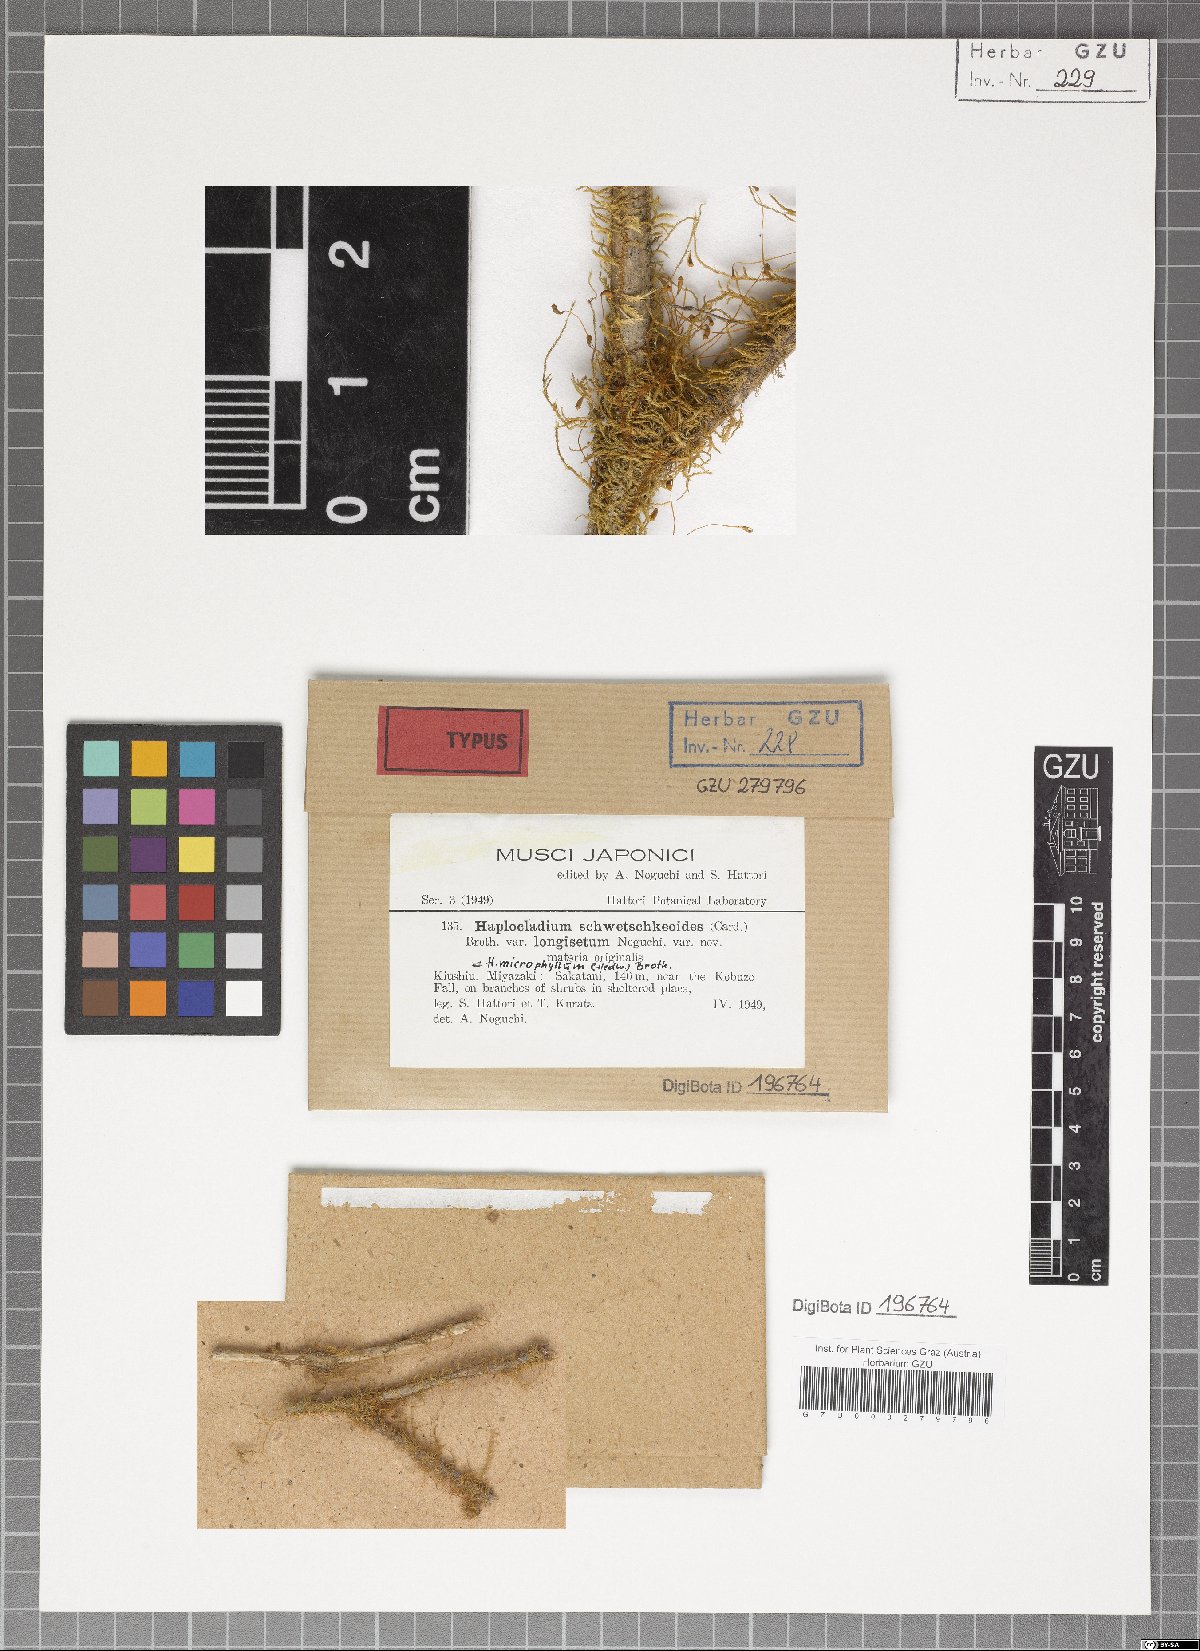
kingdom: Plantae
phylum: Bryophyta
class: Bryopsida
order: Hypnales
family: Leskeaceae
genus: Haplocladium
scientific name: Haplocladium angustifolium
